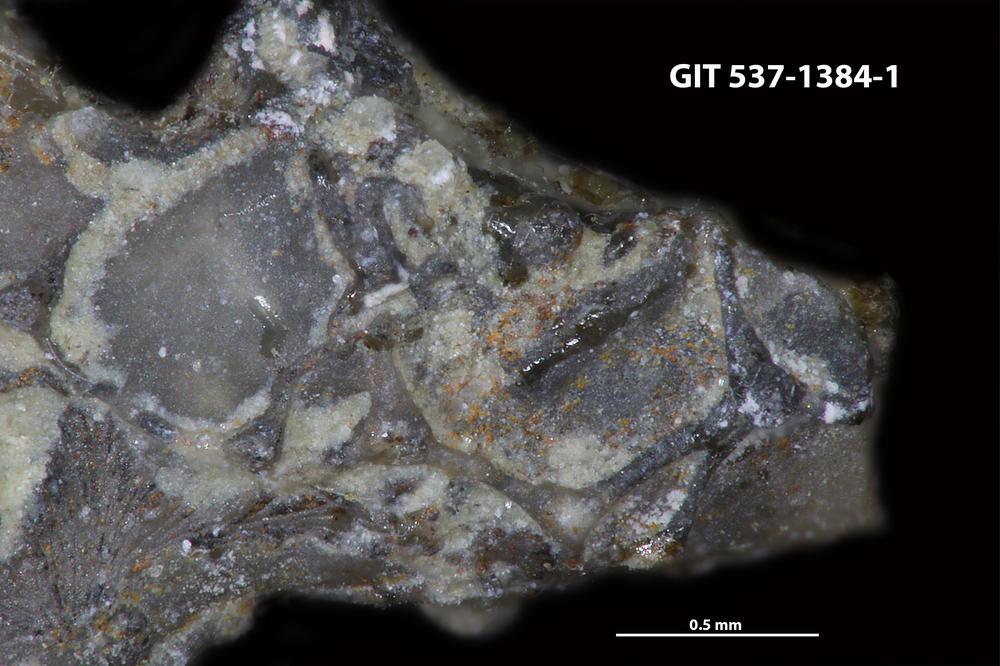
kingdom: Animalia
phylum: Bryozoa
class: Stenolaemata
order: Cyclostomatida
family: Corynotrypidae
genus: Corynotrypa
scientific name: Corynotrypa
